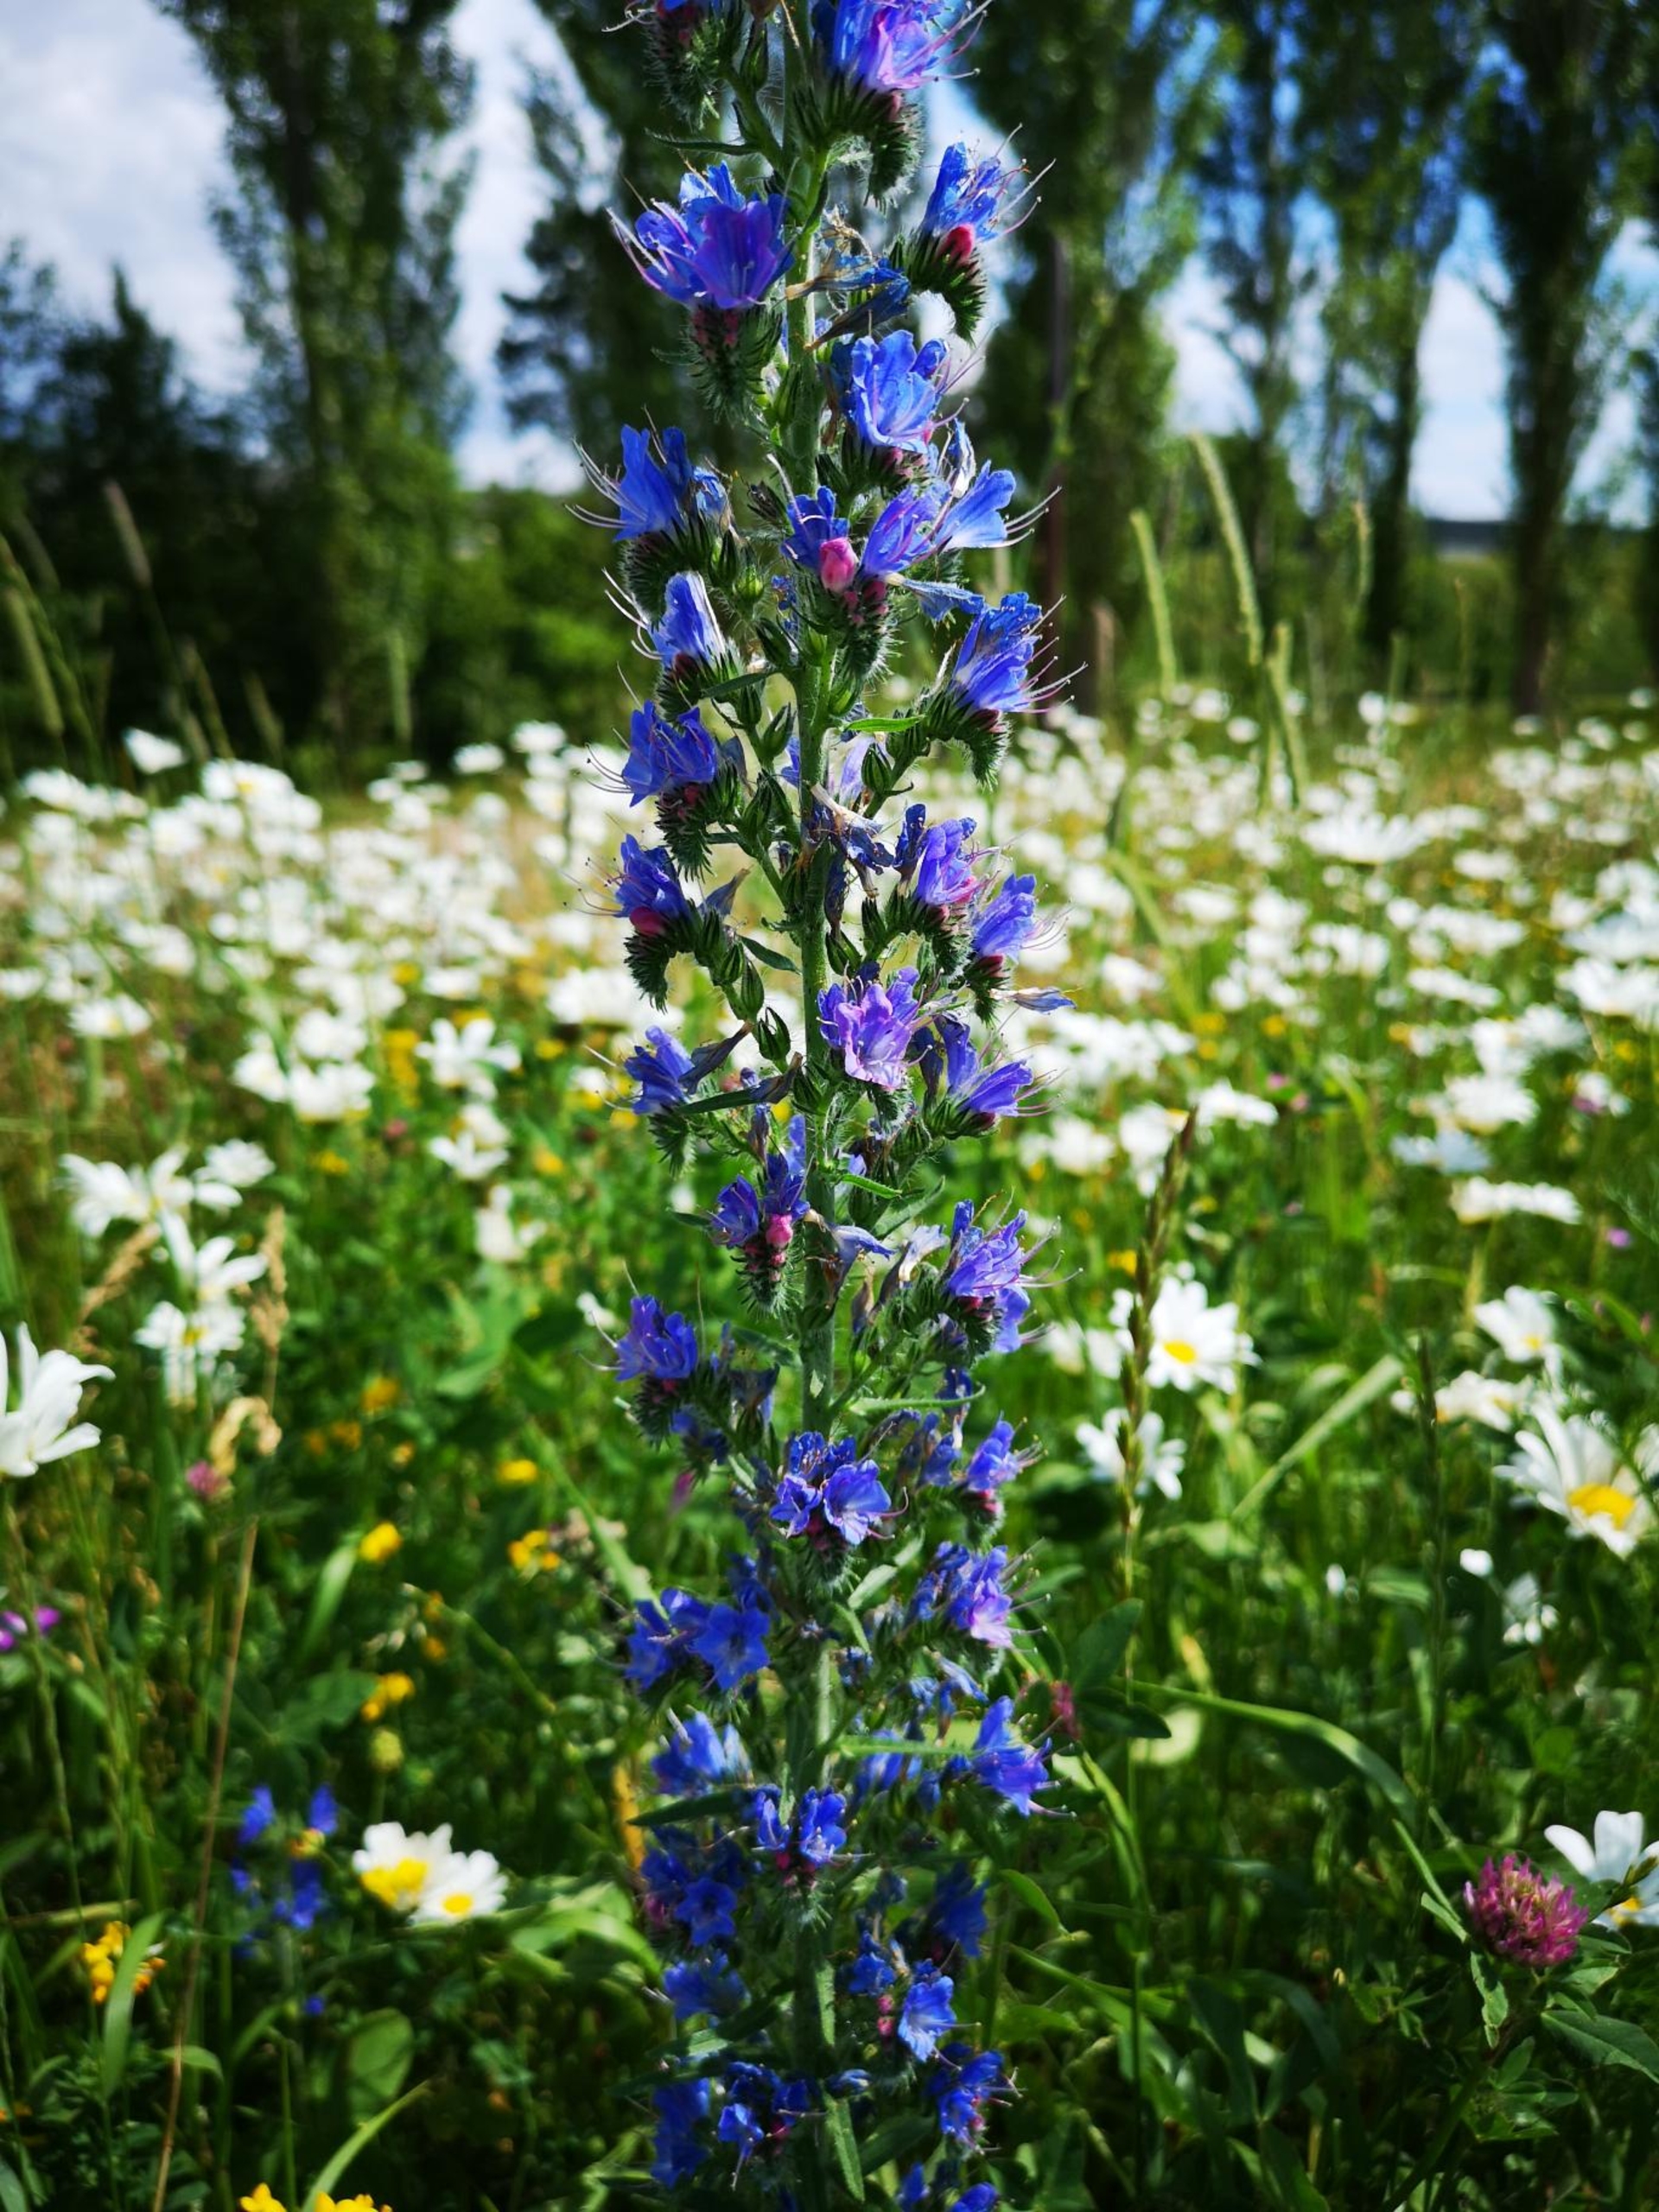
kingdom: Plantae
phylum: Tracheophyta
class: Magnoliopsida
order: Boraginales
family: Boraginaceae
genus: Echium
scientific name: Echium vulgare
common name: Slangehoved
